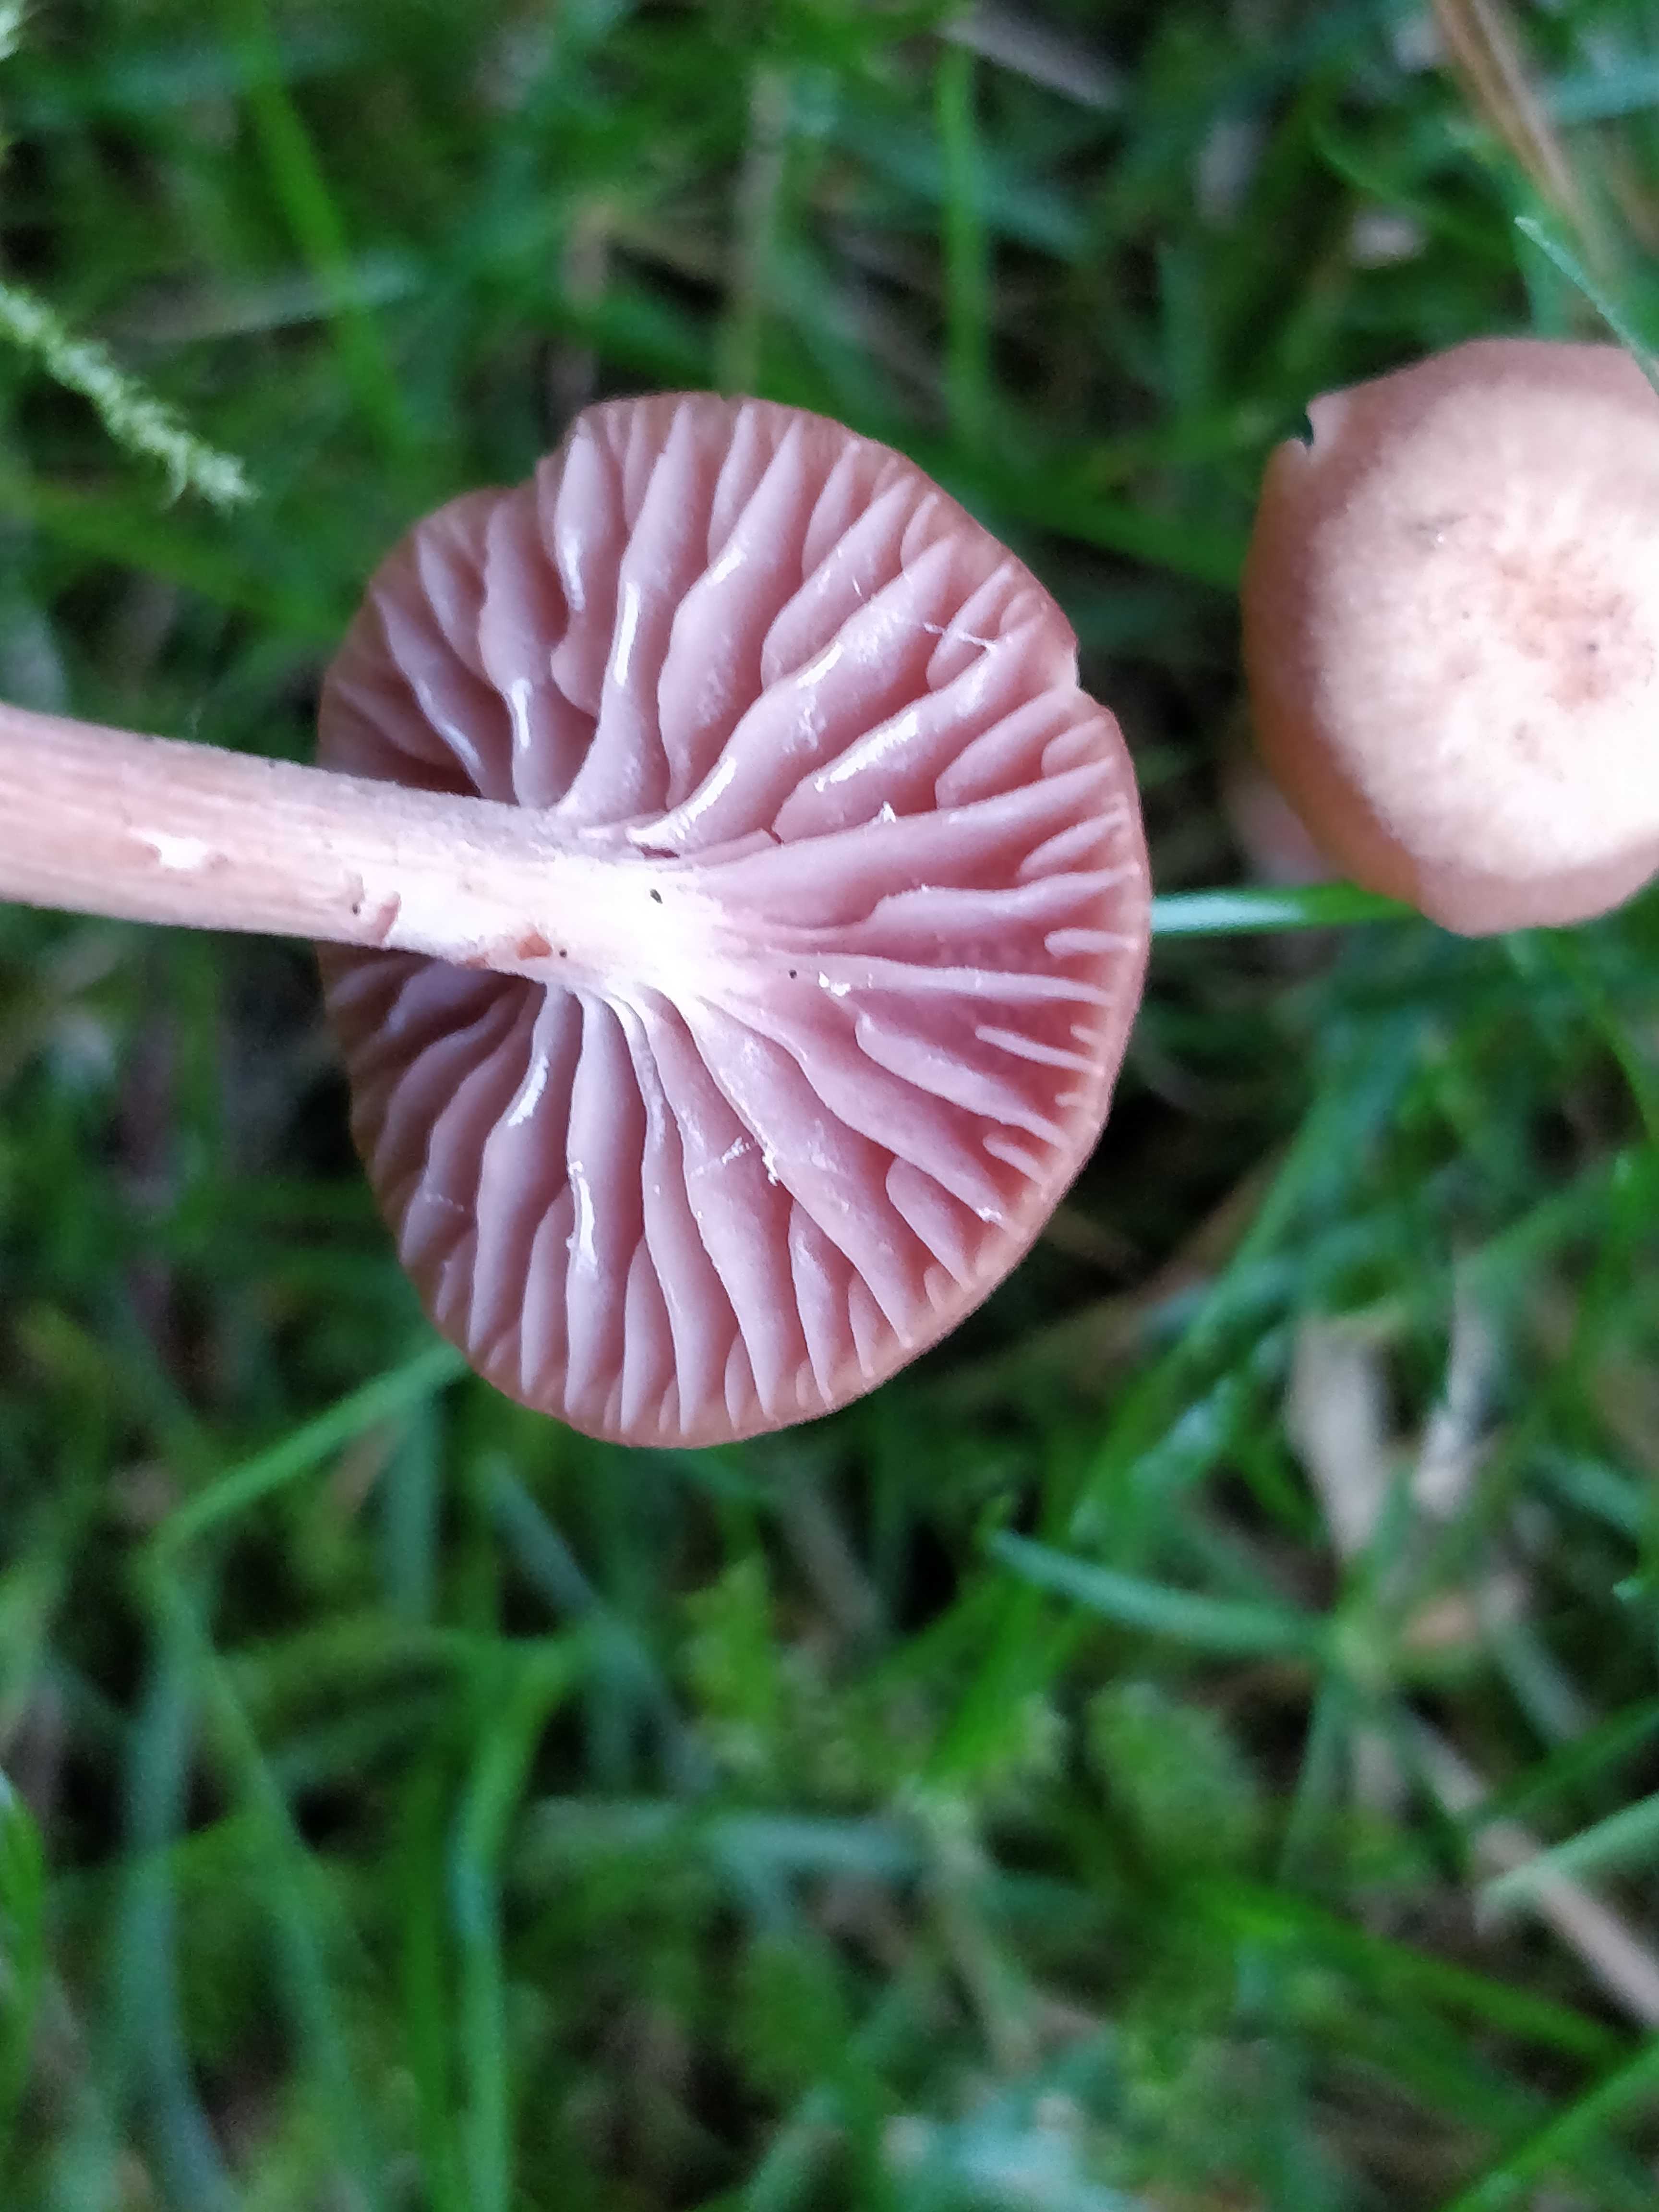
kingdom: Fungi
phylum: Basidiomycota
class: Agaricomycetes
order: Agaricales
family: Hydnangiaceae
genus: Laccaria
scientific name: Laccaria laccata
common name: rød ametysthat
